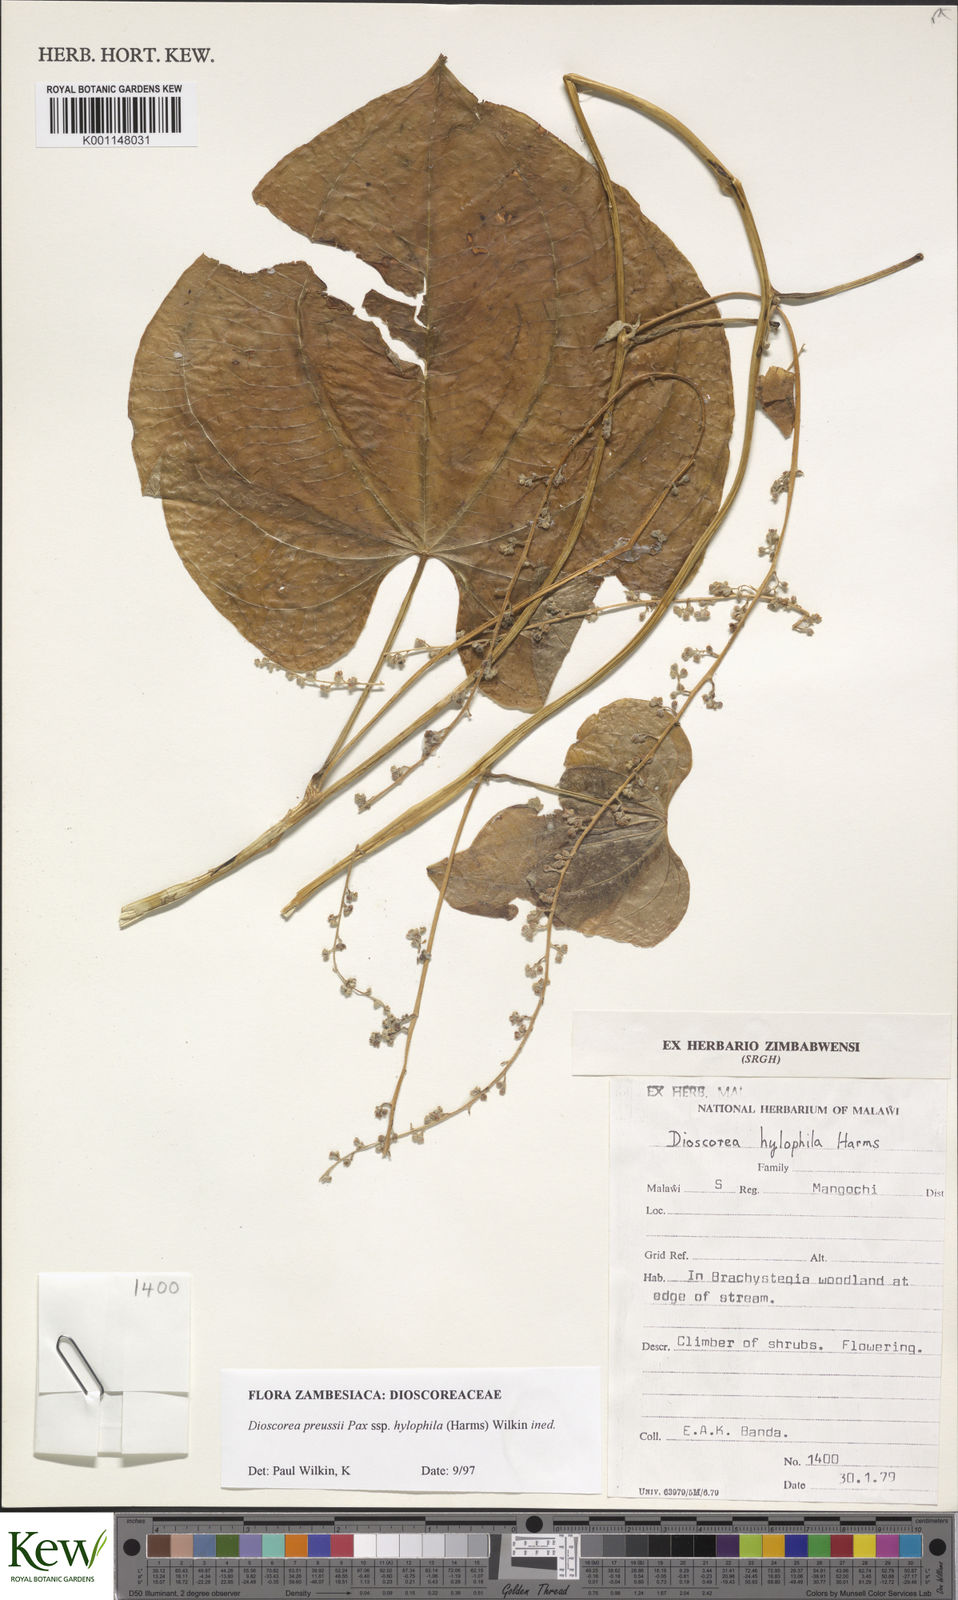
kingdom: Plantae
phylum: Tracheophyta
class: Liliopsida
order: Dioscoreales
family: Dioscoreaceae
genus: Dioscorea
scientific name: Dioscorea preussii
